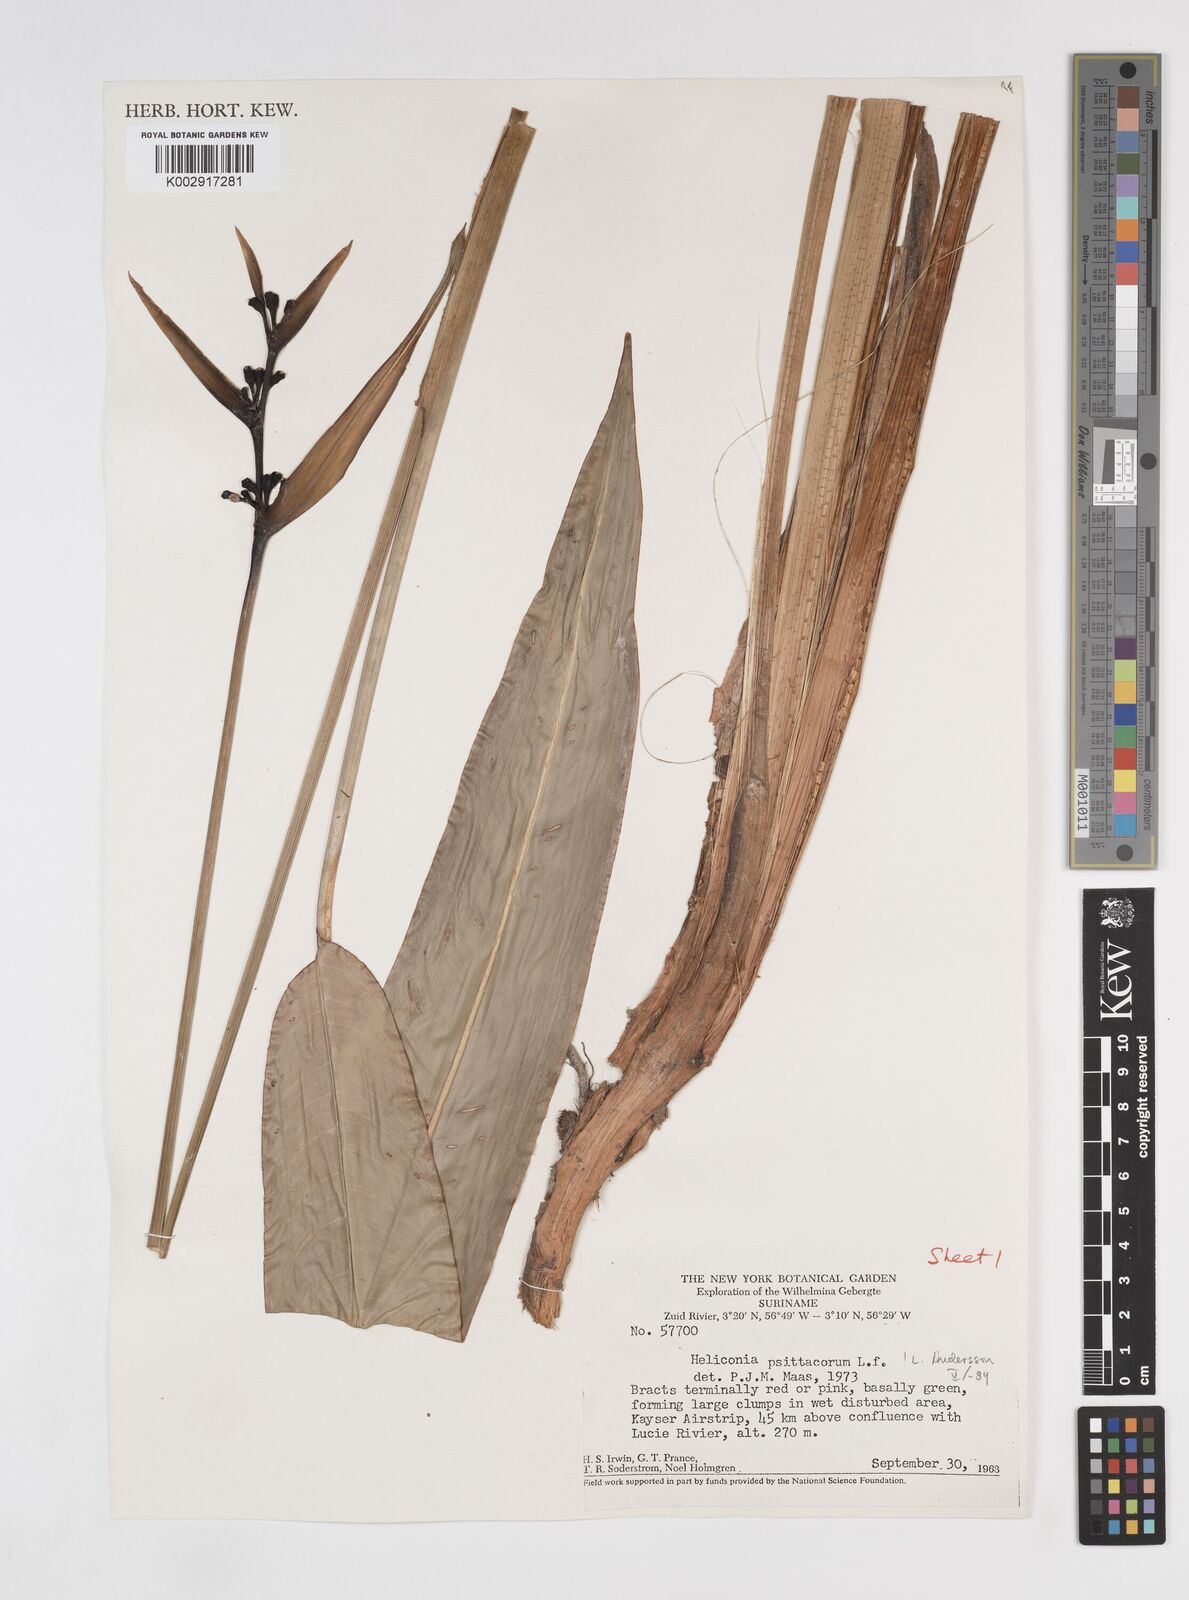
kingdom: Plantae
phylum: Tracheophyta
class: Liliopsida
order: Zingiberales
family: Heliconiaceae
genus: Heliconia
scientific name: Heliconia psittacorum
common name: Parrot's-flower
